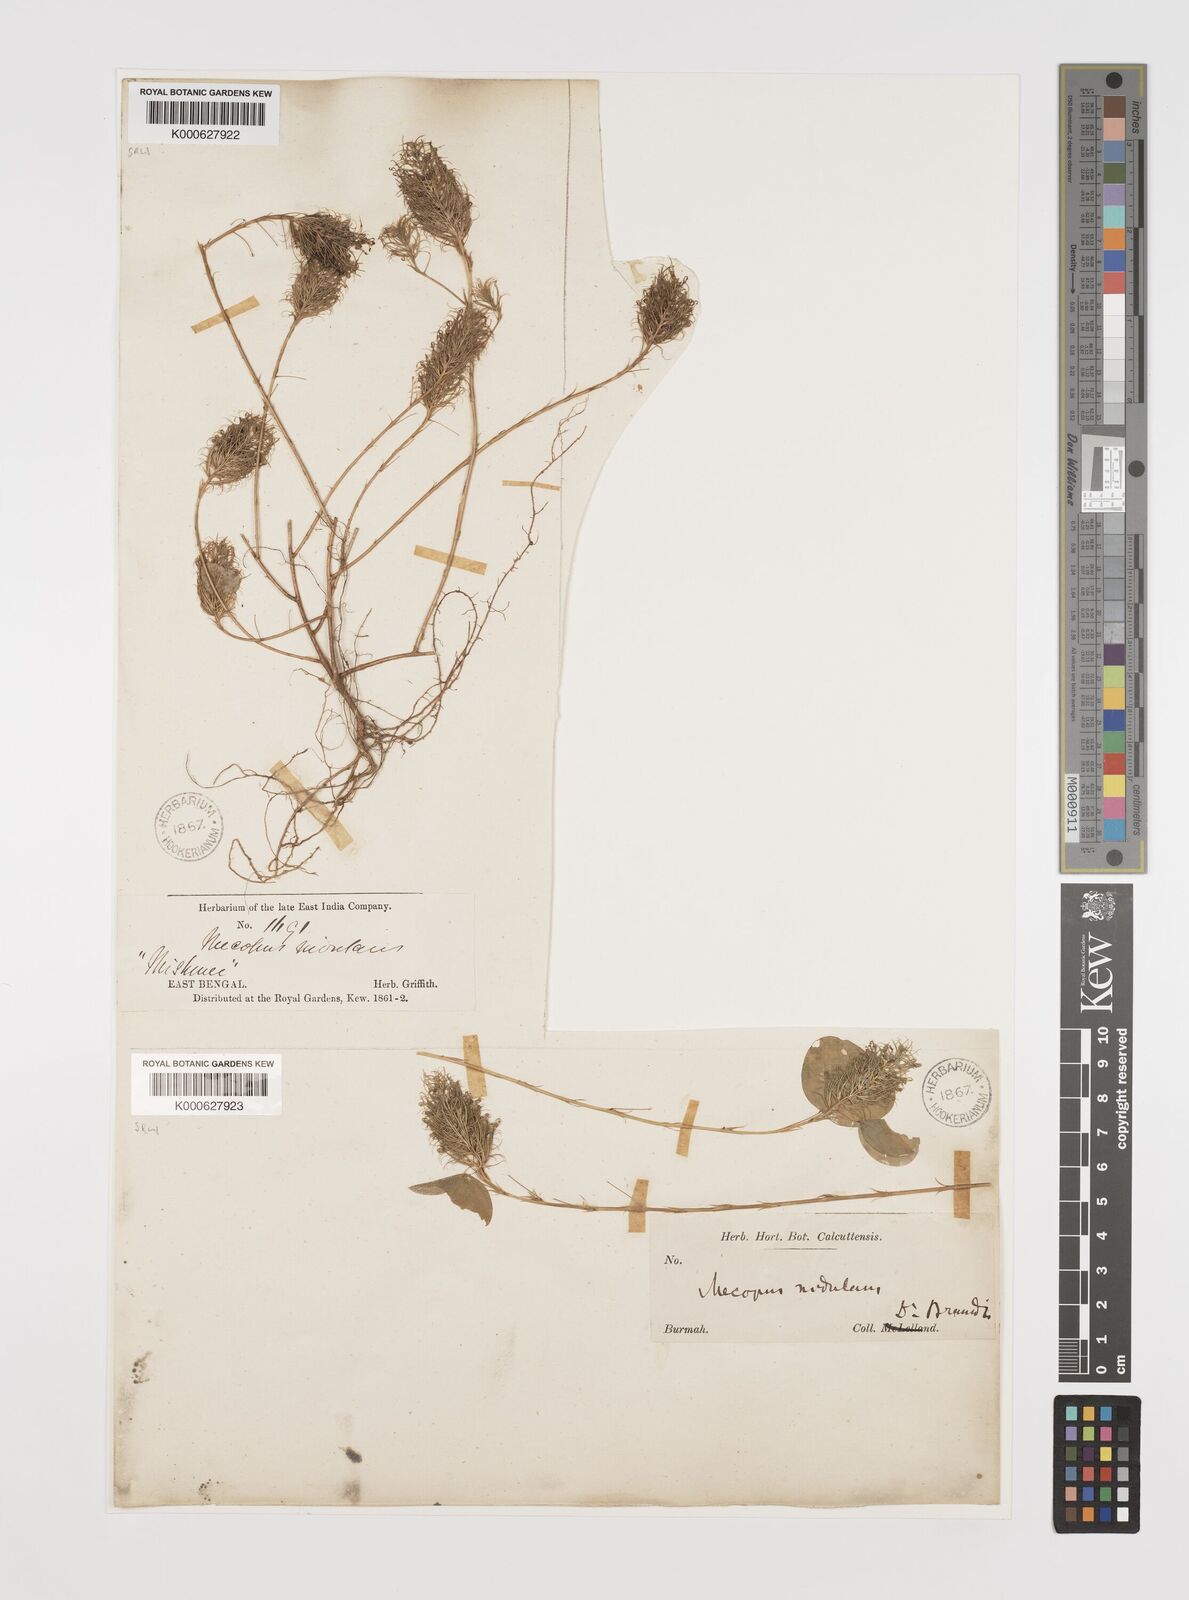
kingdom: Plantae
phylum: Tracheophyta
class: Magnoliopsida
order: Fabales
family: Fabaceae
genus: Mecopus
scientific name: Mecopus nidulans
